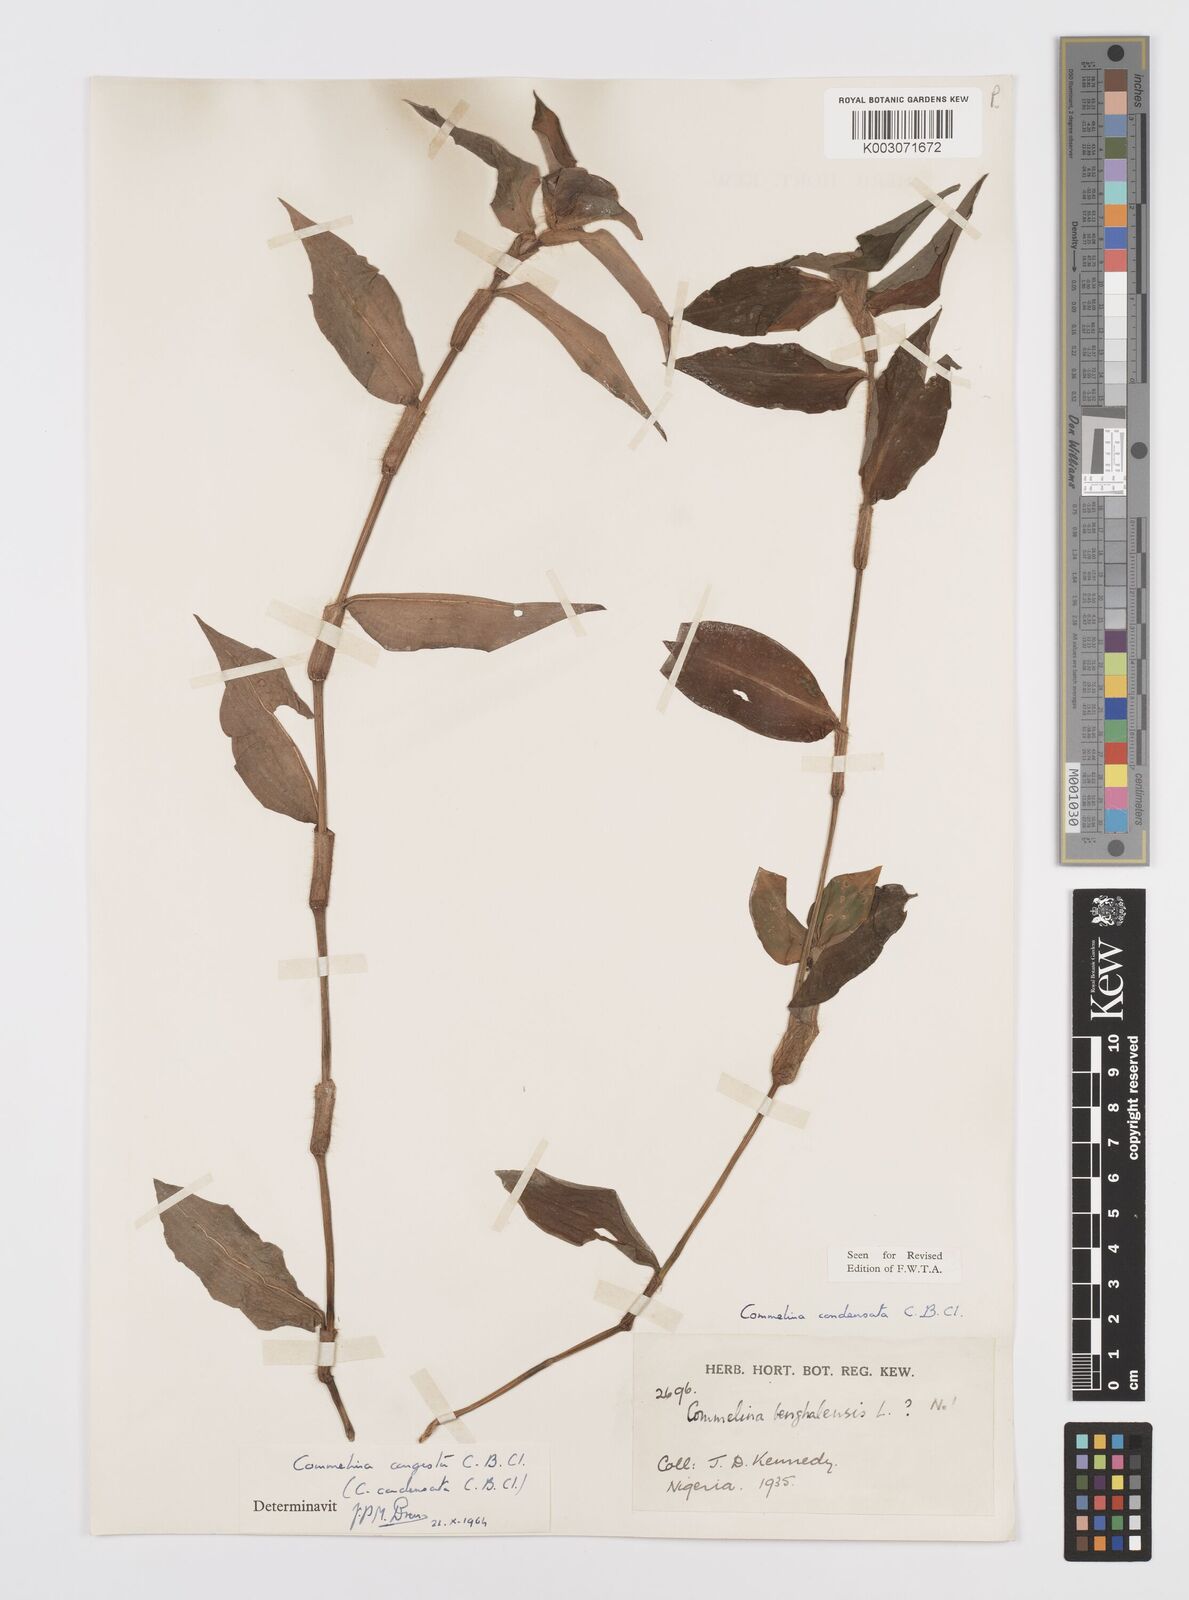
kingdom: Plantae
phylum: Tracheophyta
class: Liliopsida
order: Commelinales
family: Commelinaceae
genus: Commelina
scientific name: Commelina congesta
